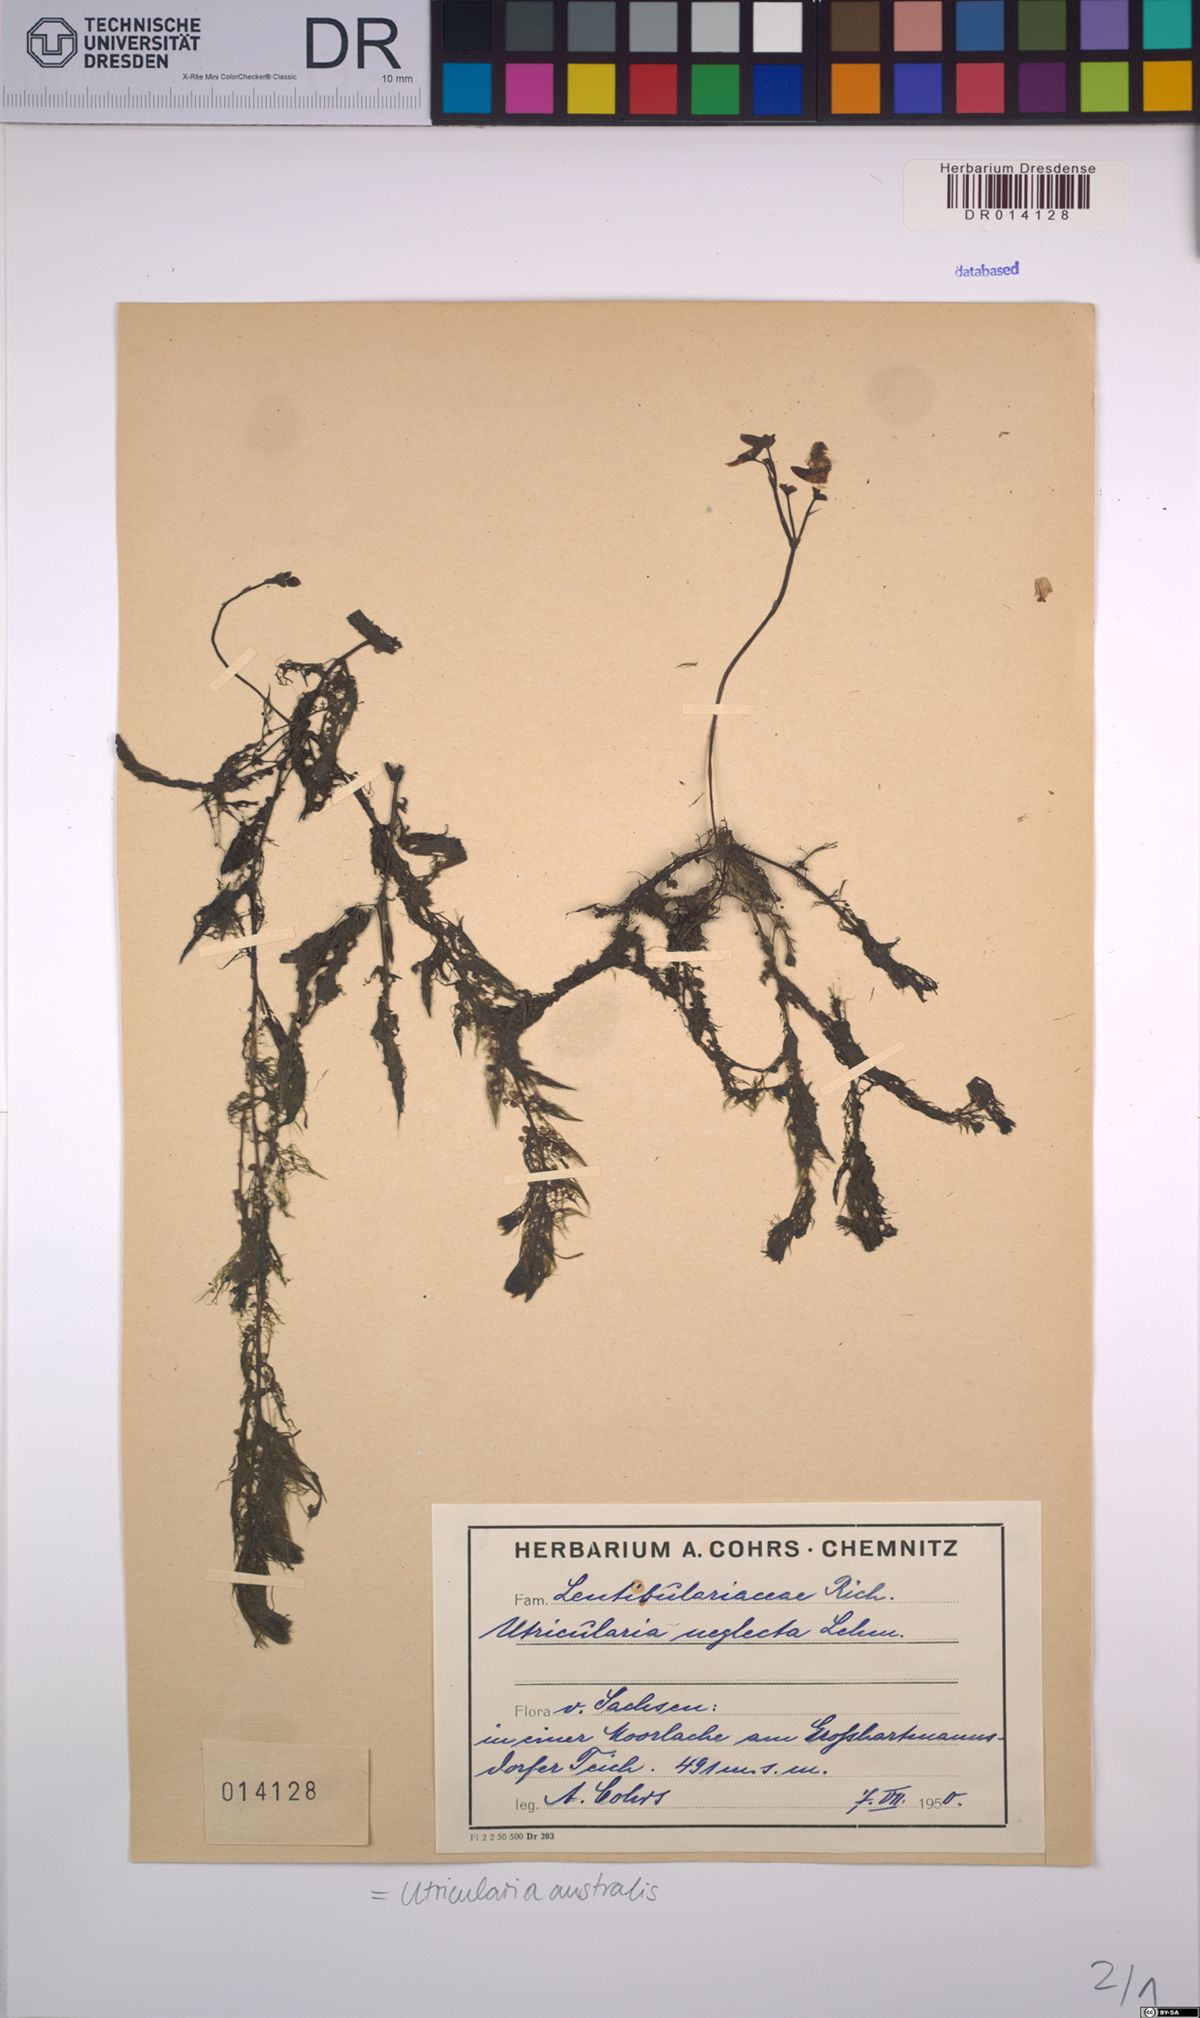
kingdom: Plantae
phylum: Tracheophyta
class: Magnoliopsida
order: Lamiales
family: Lentibulariaceae
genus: Utricularia
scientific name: Utricularia australis
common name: Bladderwort
